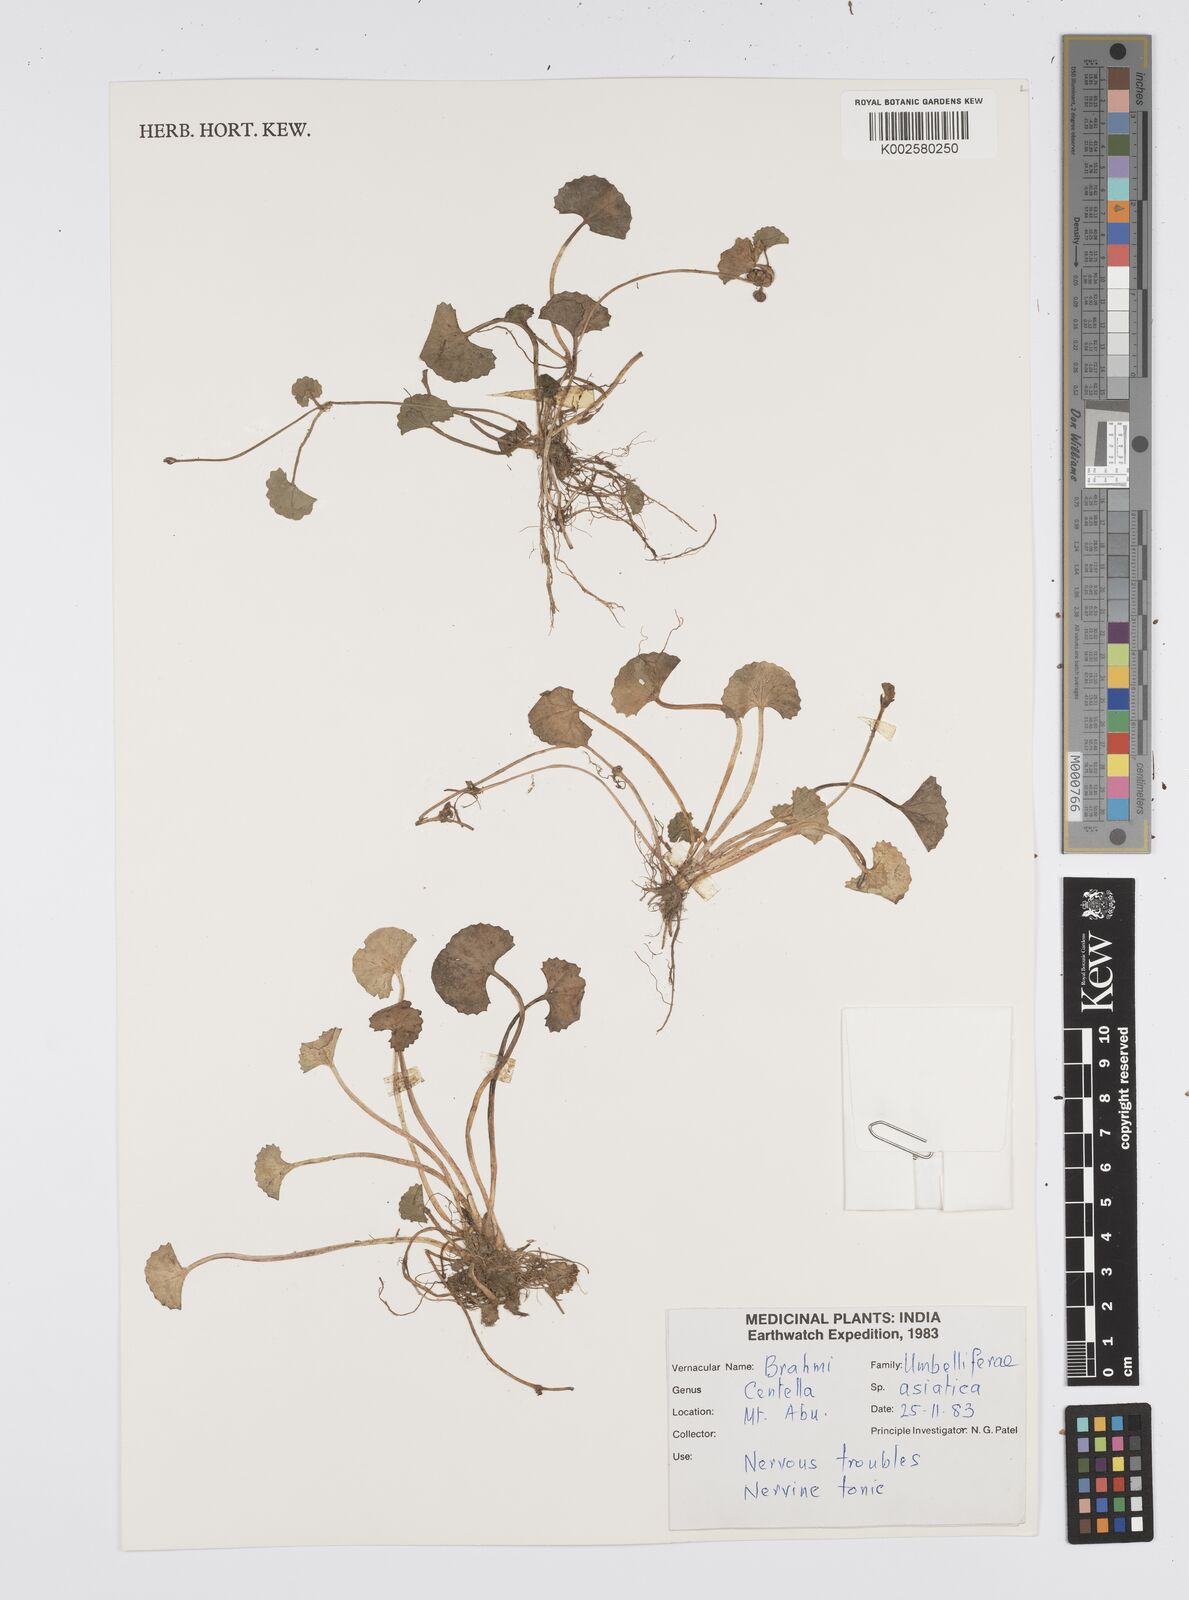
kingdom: Plantae
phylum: Tracheophyta
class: Magnoliopsida
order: Apiales
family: Apiaceae
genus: Centella
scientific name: Centella asiatica
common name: Spadeleaf
